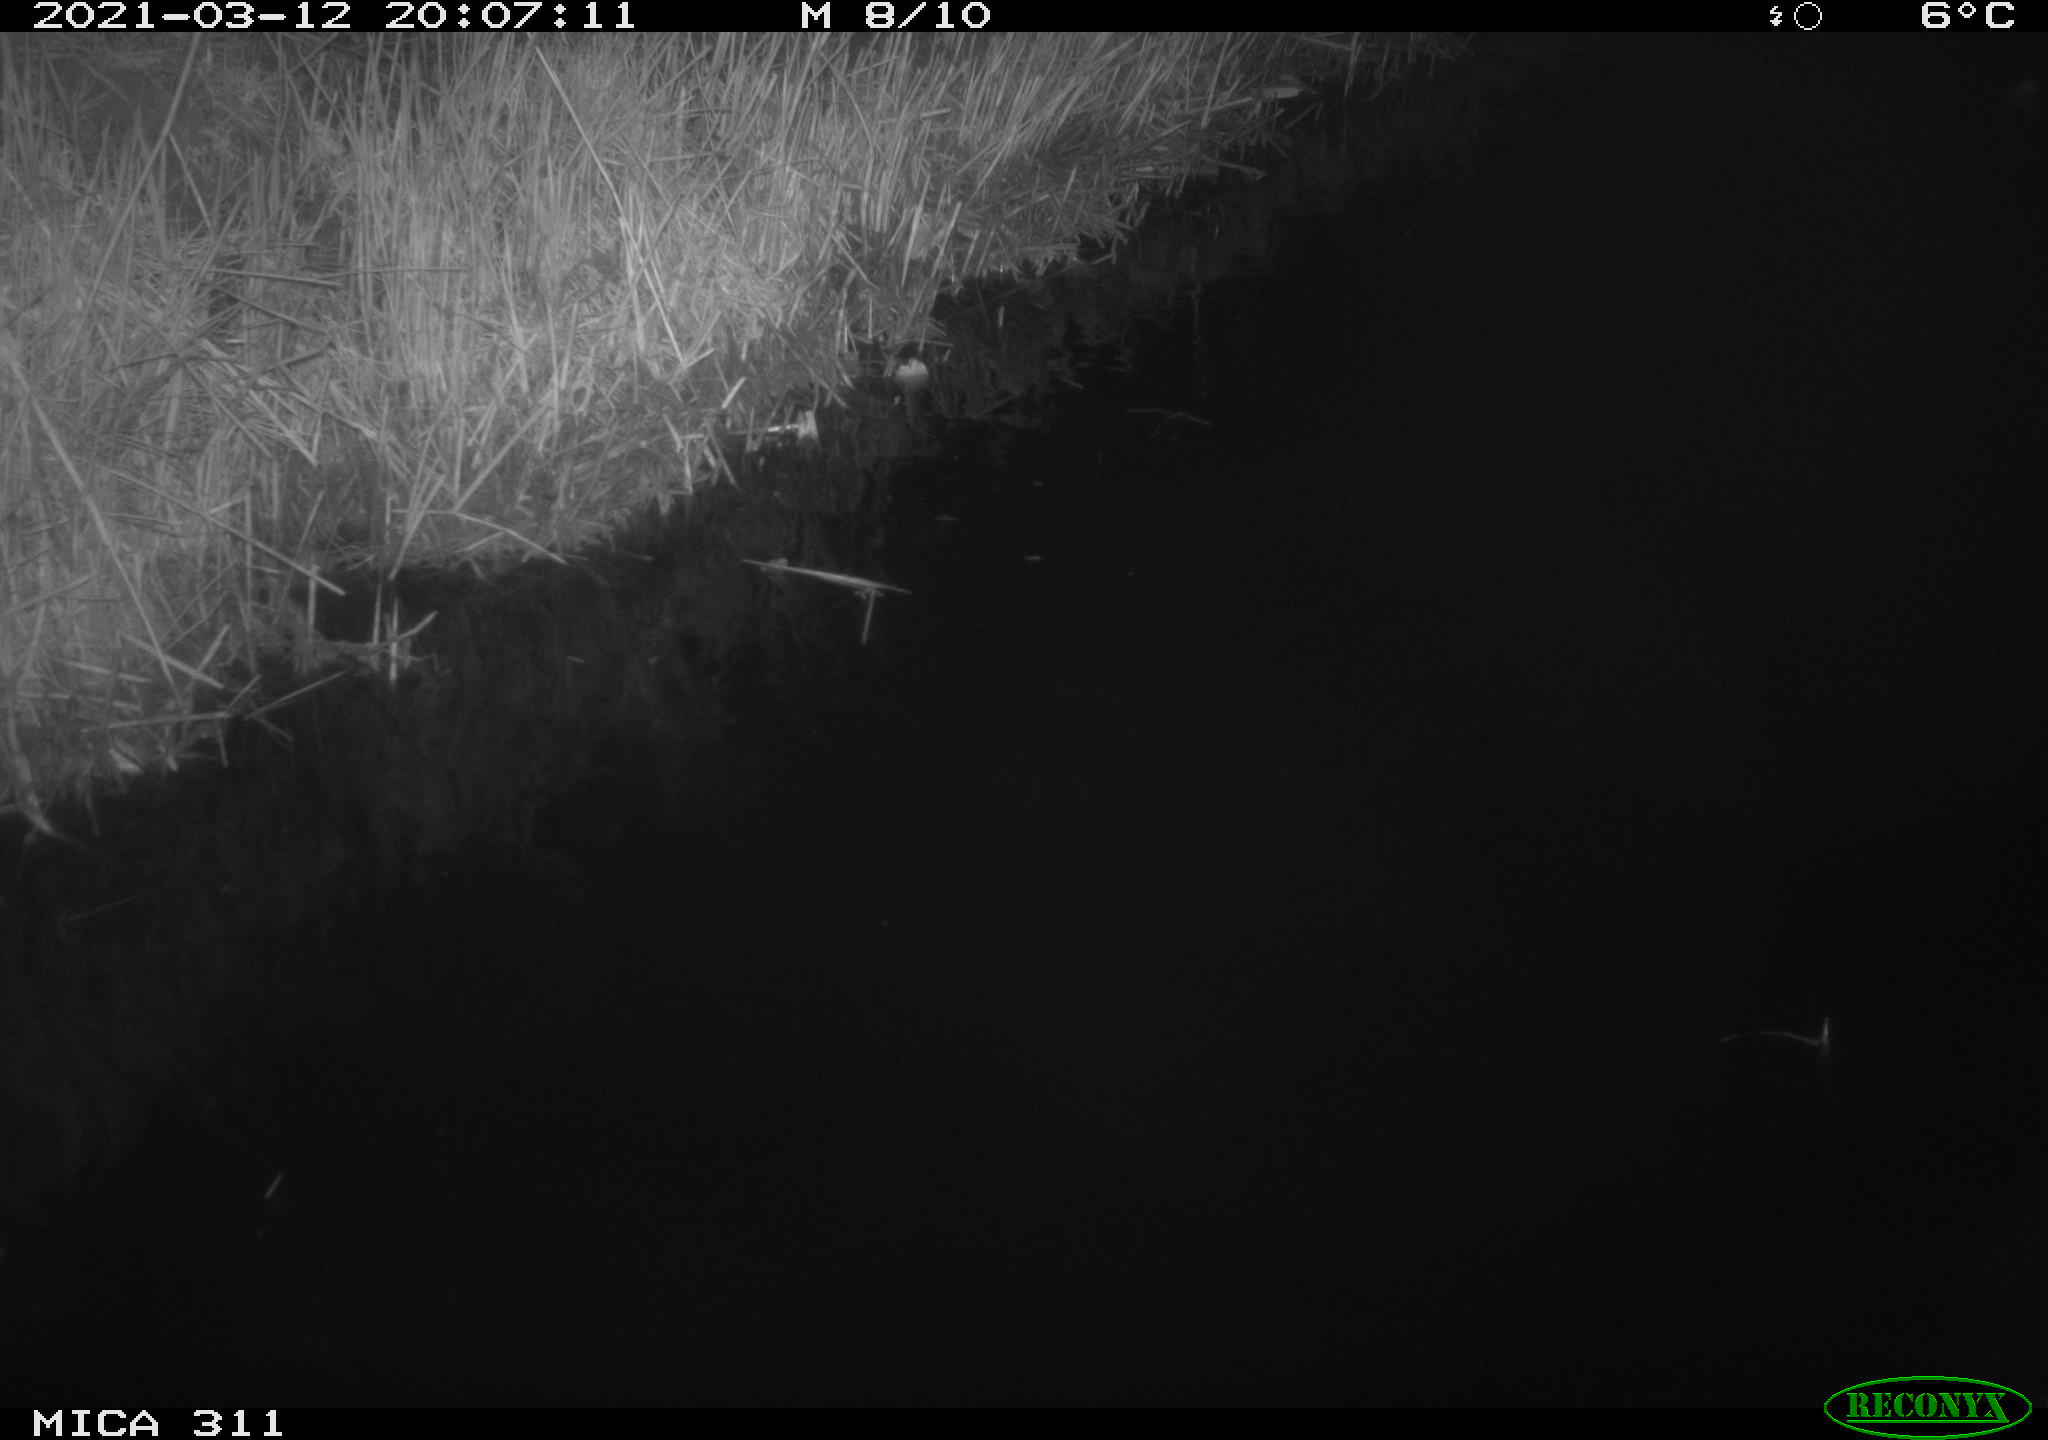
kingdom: Animalia
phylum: Chordata
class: Aves
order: Gruiformes
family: Rallidae
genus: Gallinula
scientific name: Gallinula chloropus
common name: Common moorhen
